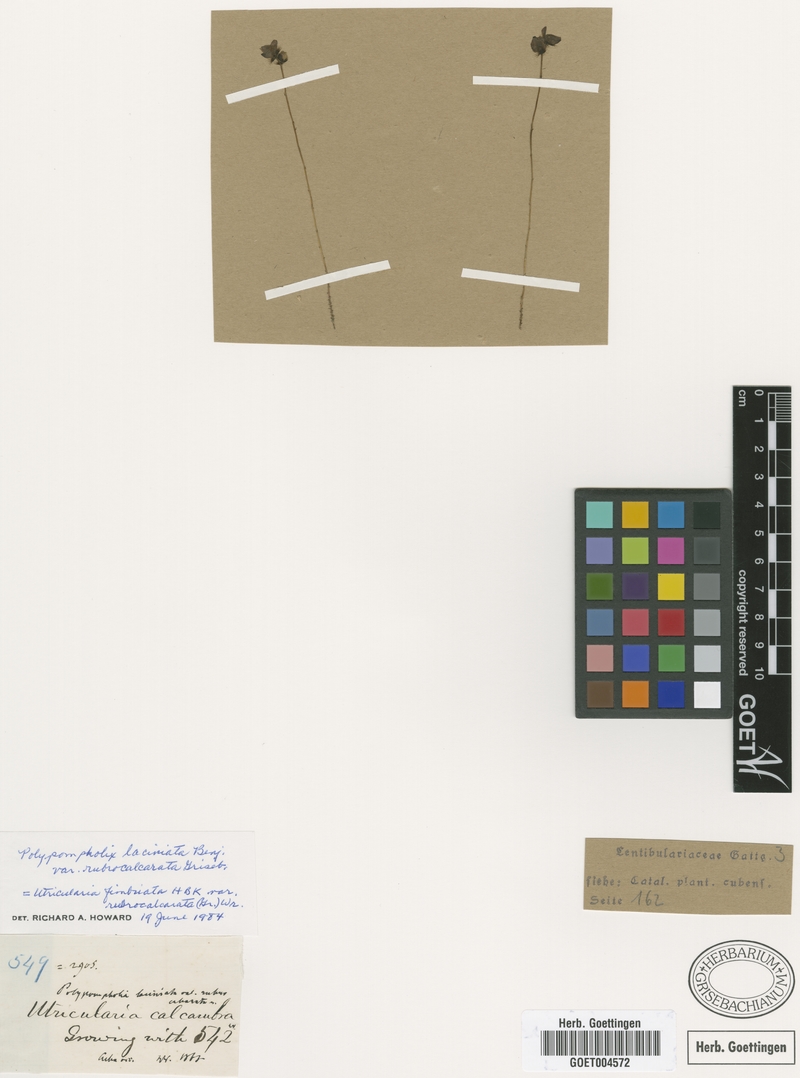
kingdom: Plantae
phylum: Tracheophyta
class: Magnoliopsida
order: Lamiales
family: Lentibulariaceae
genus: Utricularia
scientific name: Utricularia laciniata
